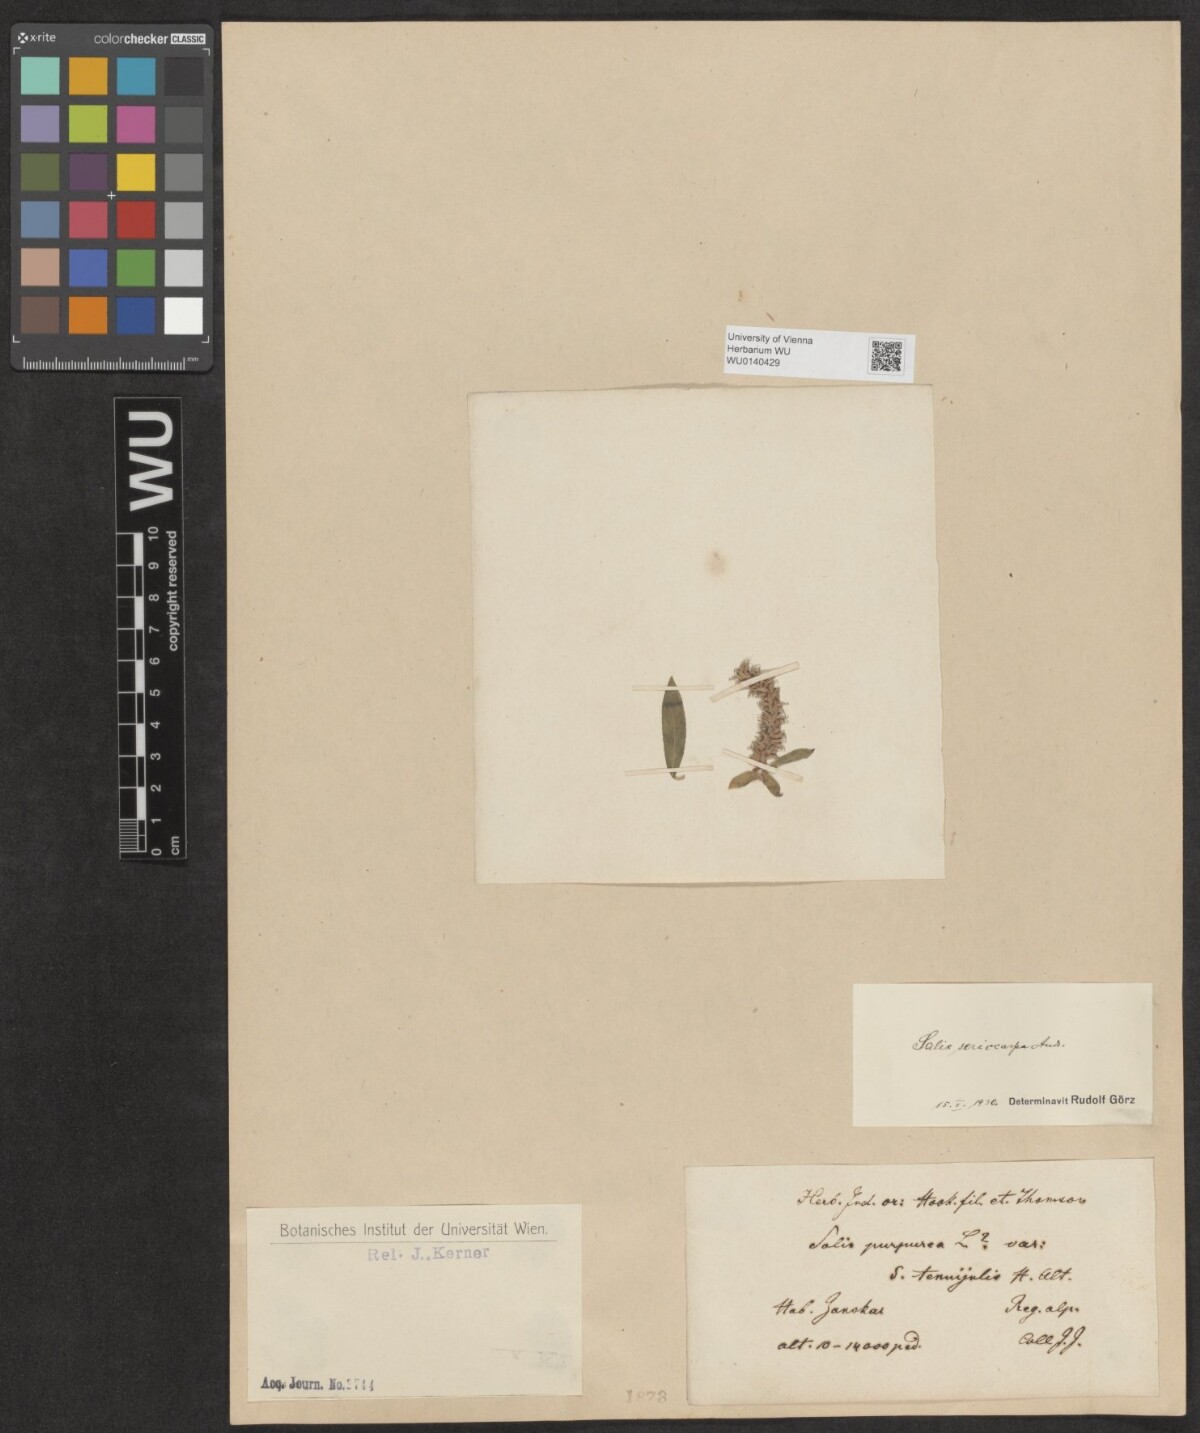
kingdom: Plantae
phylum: Tracheophyta
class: Magnoliopsida
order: Malpighiales
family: Salicaceae
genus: Salix
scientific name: Salix sericocarpa
